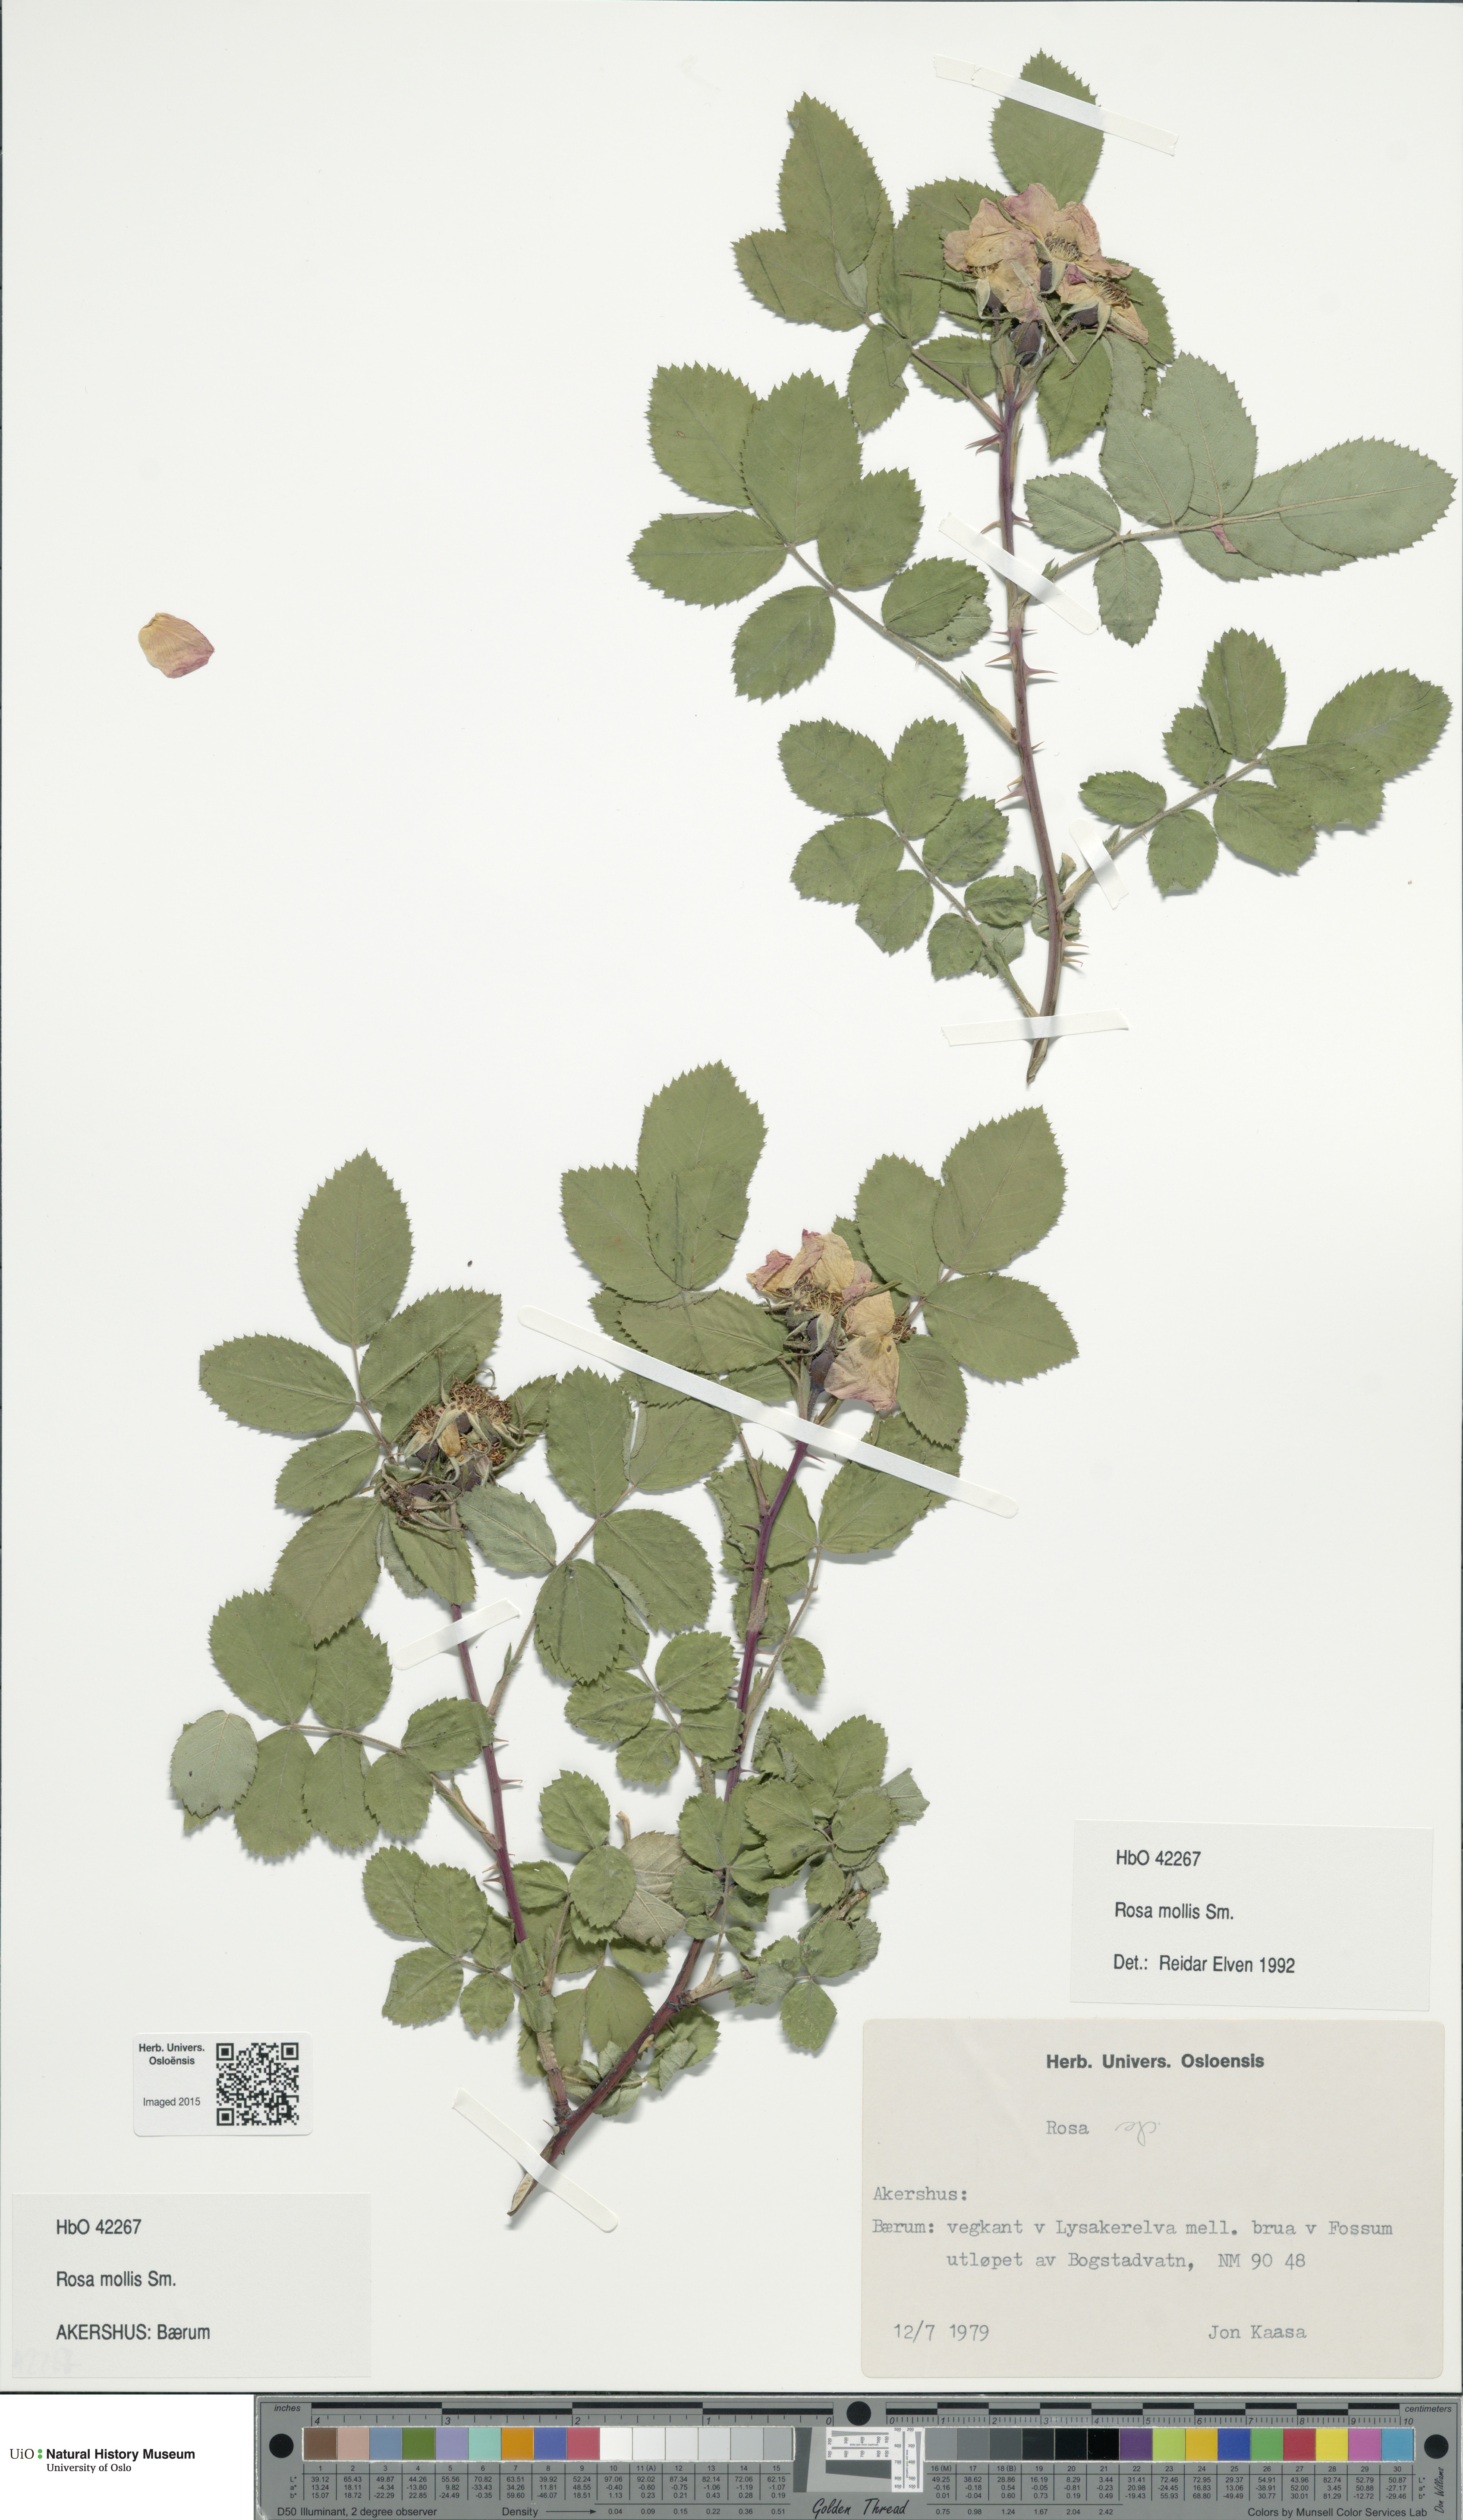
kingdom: Plantae
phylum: Tracheophyta
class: Magnoliopsida
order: Rosales
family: Rosaceae
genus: Rosa
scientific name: Rosa mollis
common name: Rose
